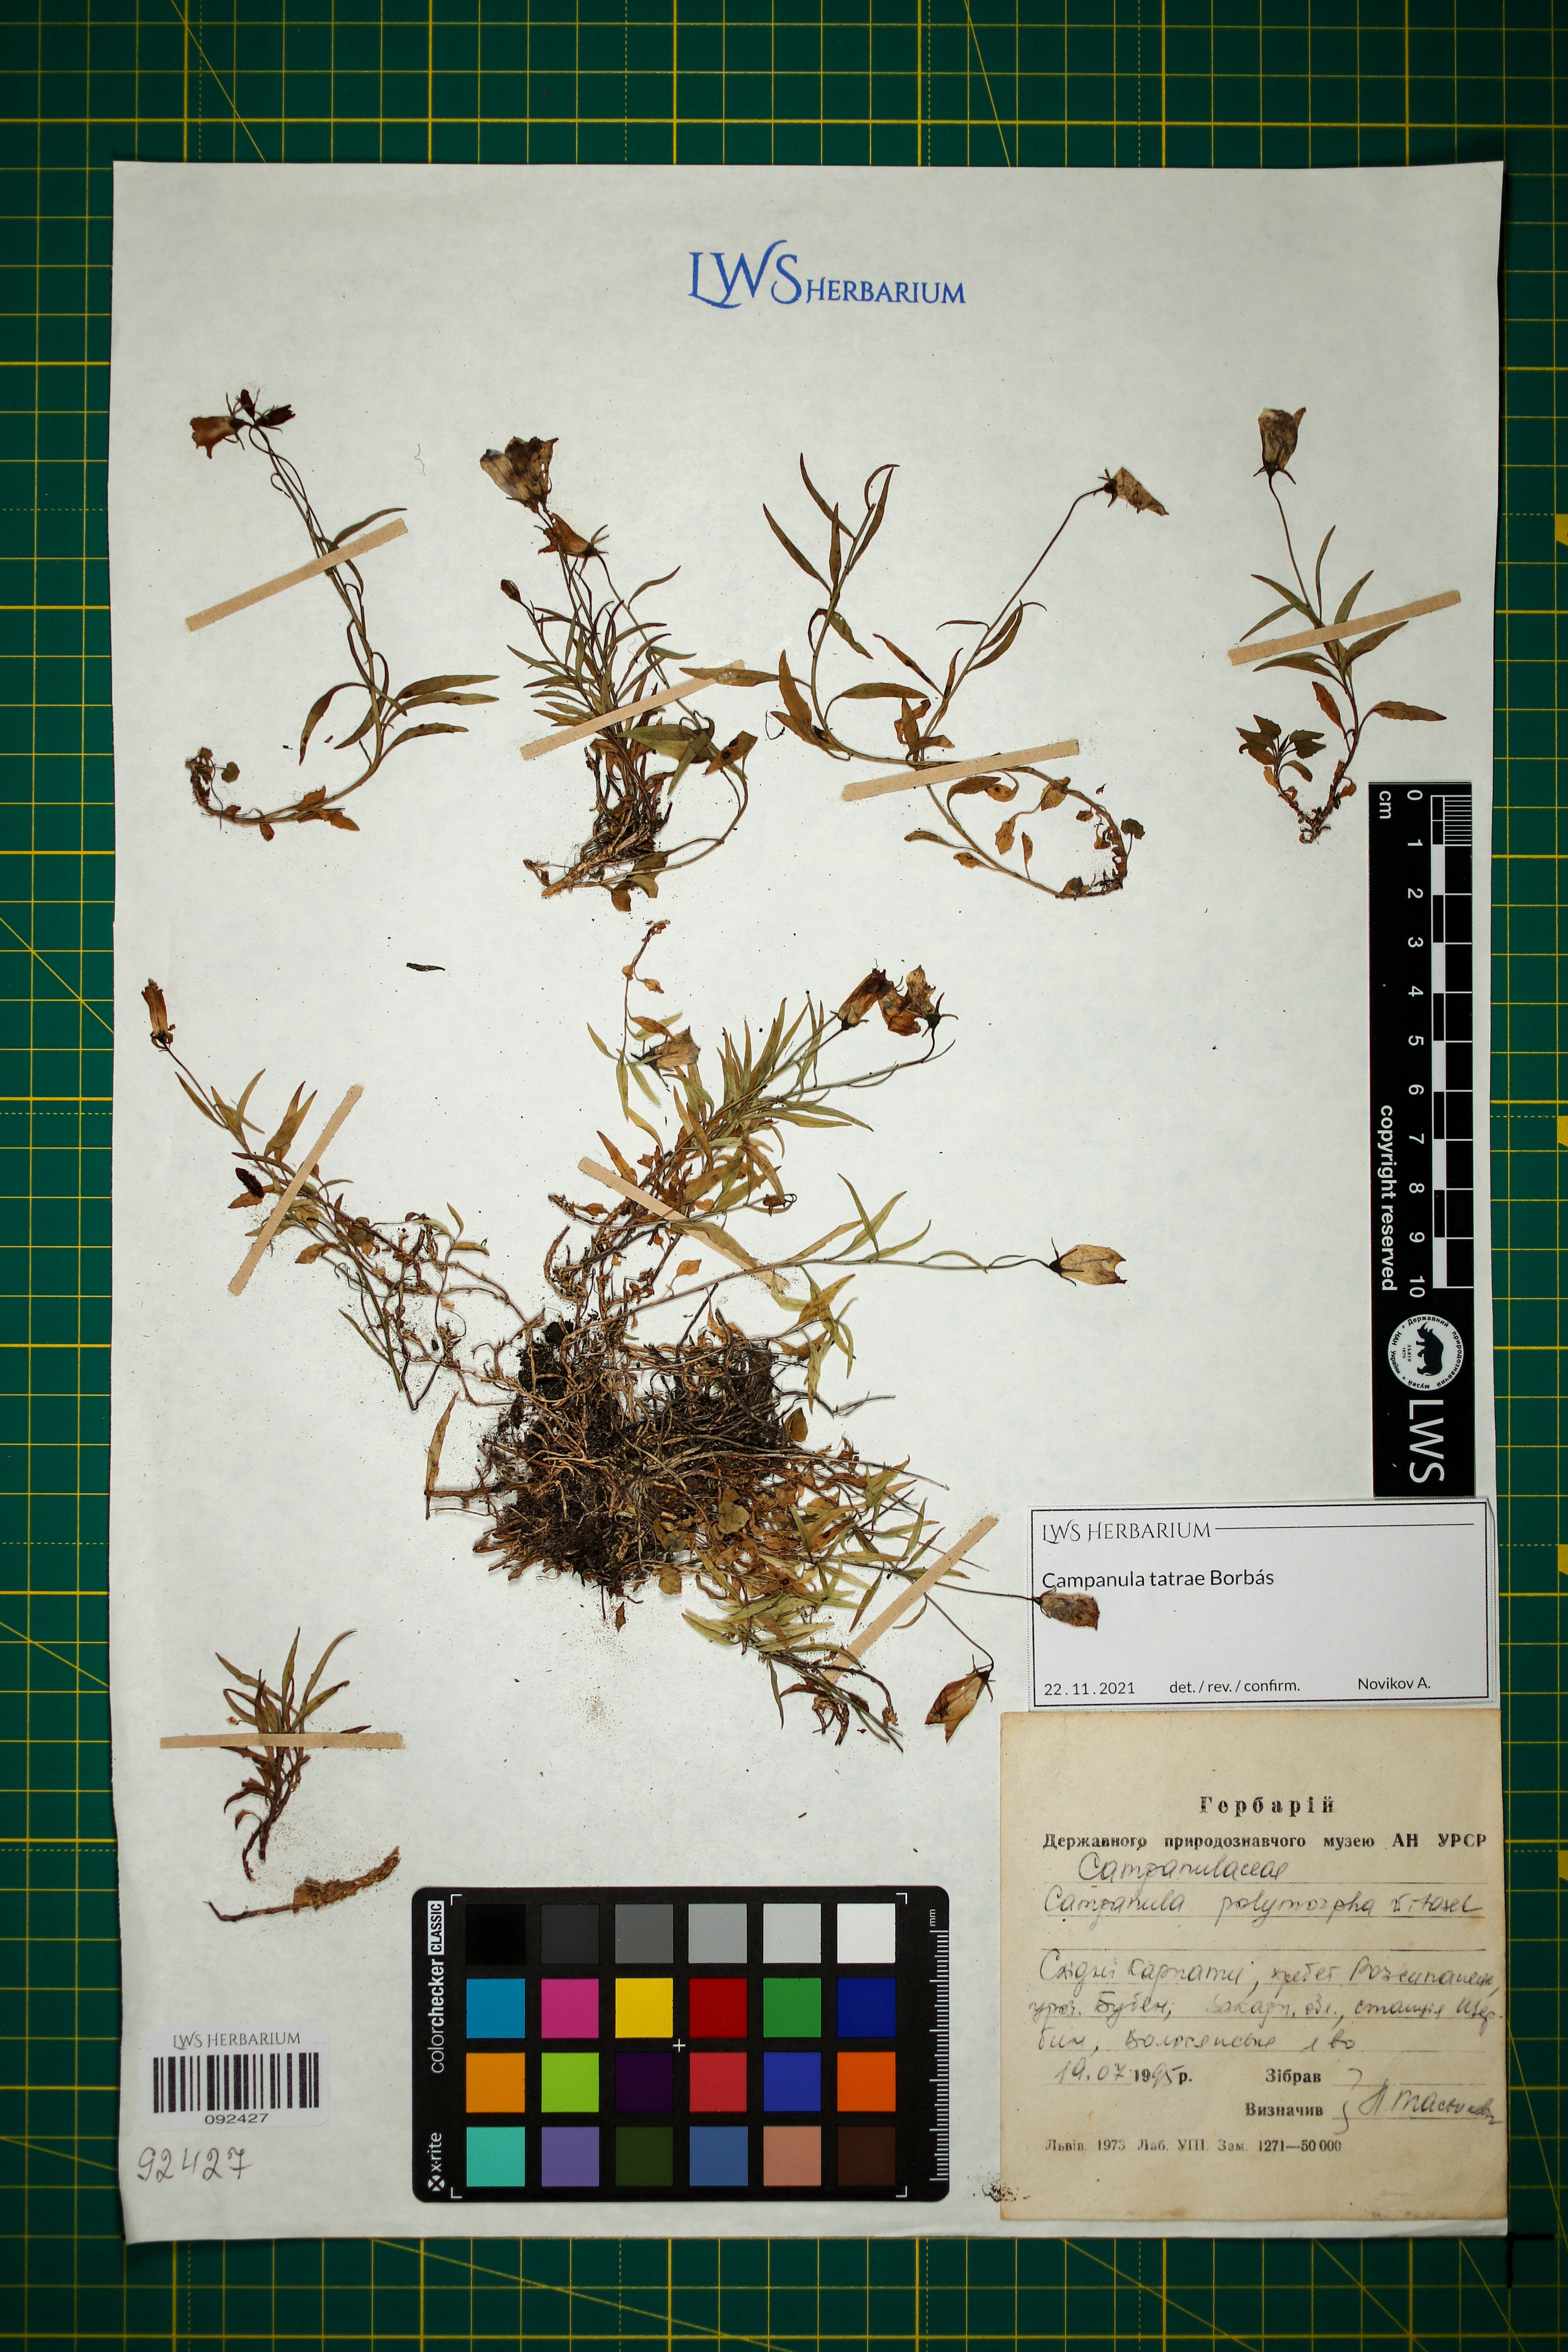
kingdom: Plantae
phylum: Tracheophyta
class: Magnoliopsida
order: Asterales
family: Campanulaceae
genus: Campanula
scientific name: Campanula tatrae
